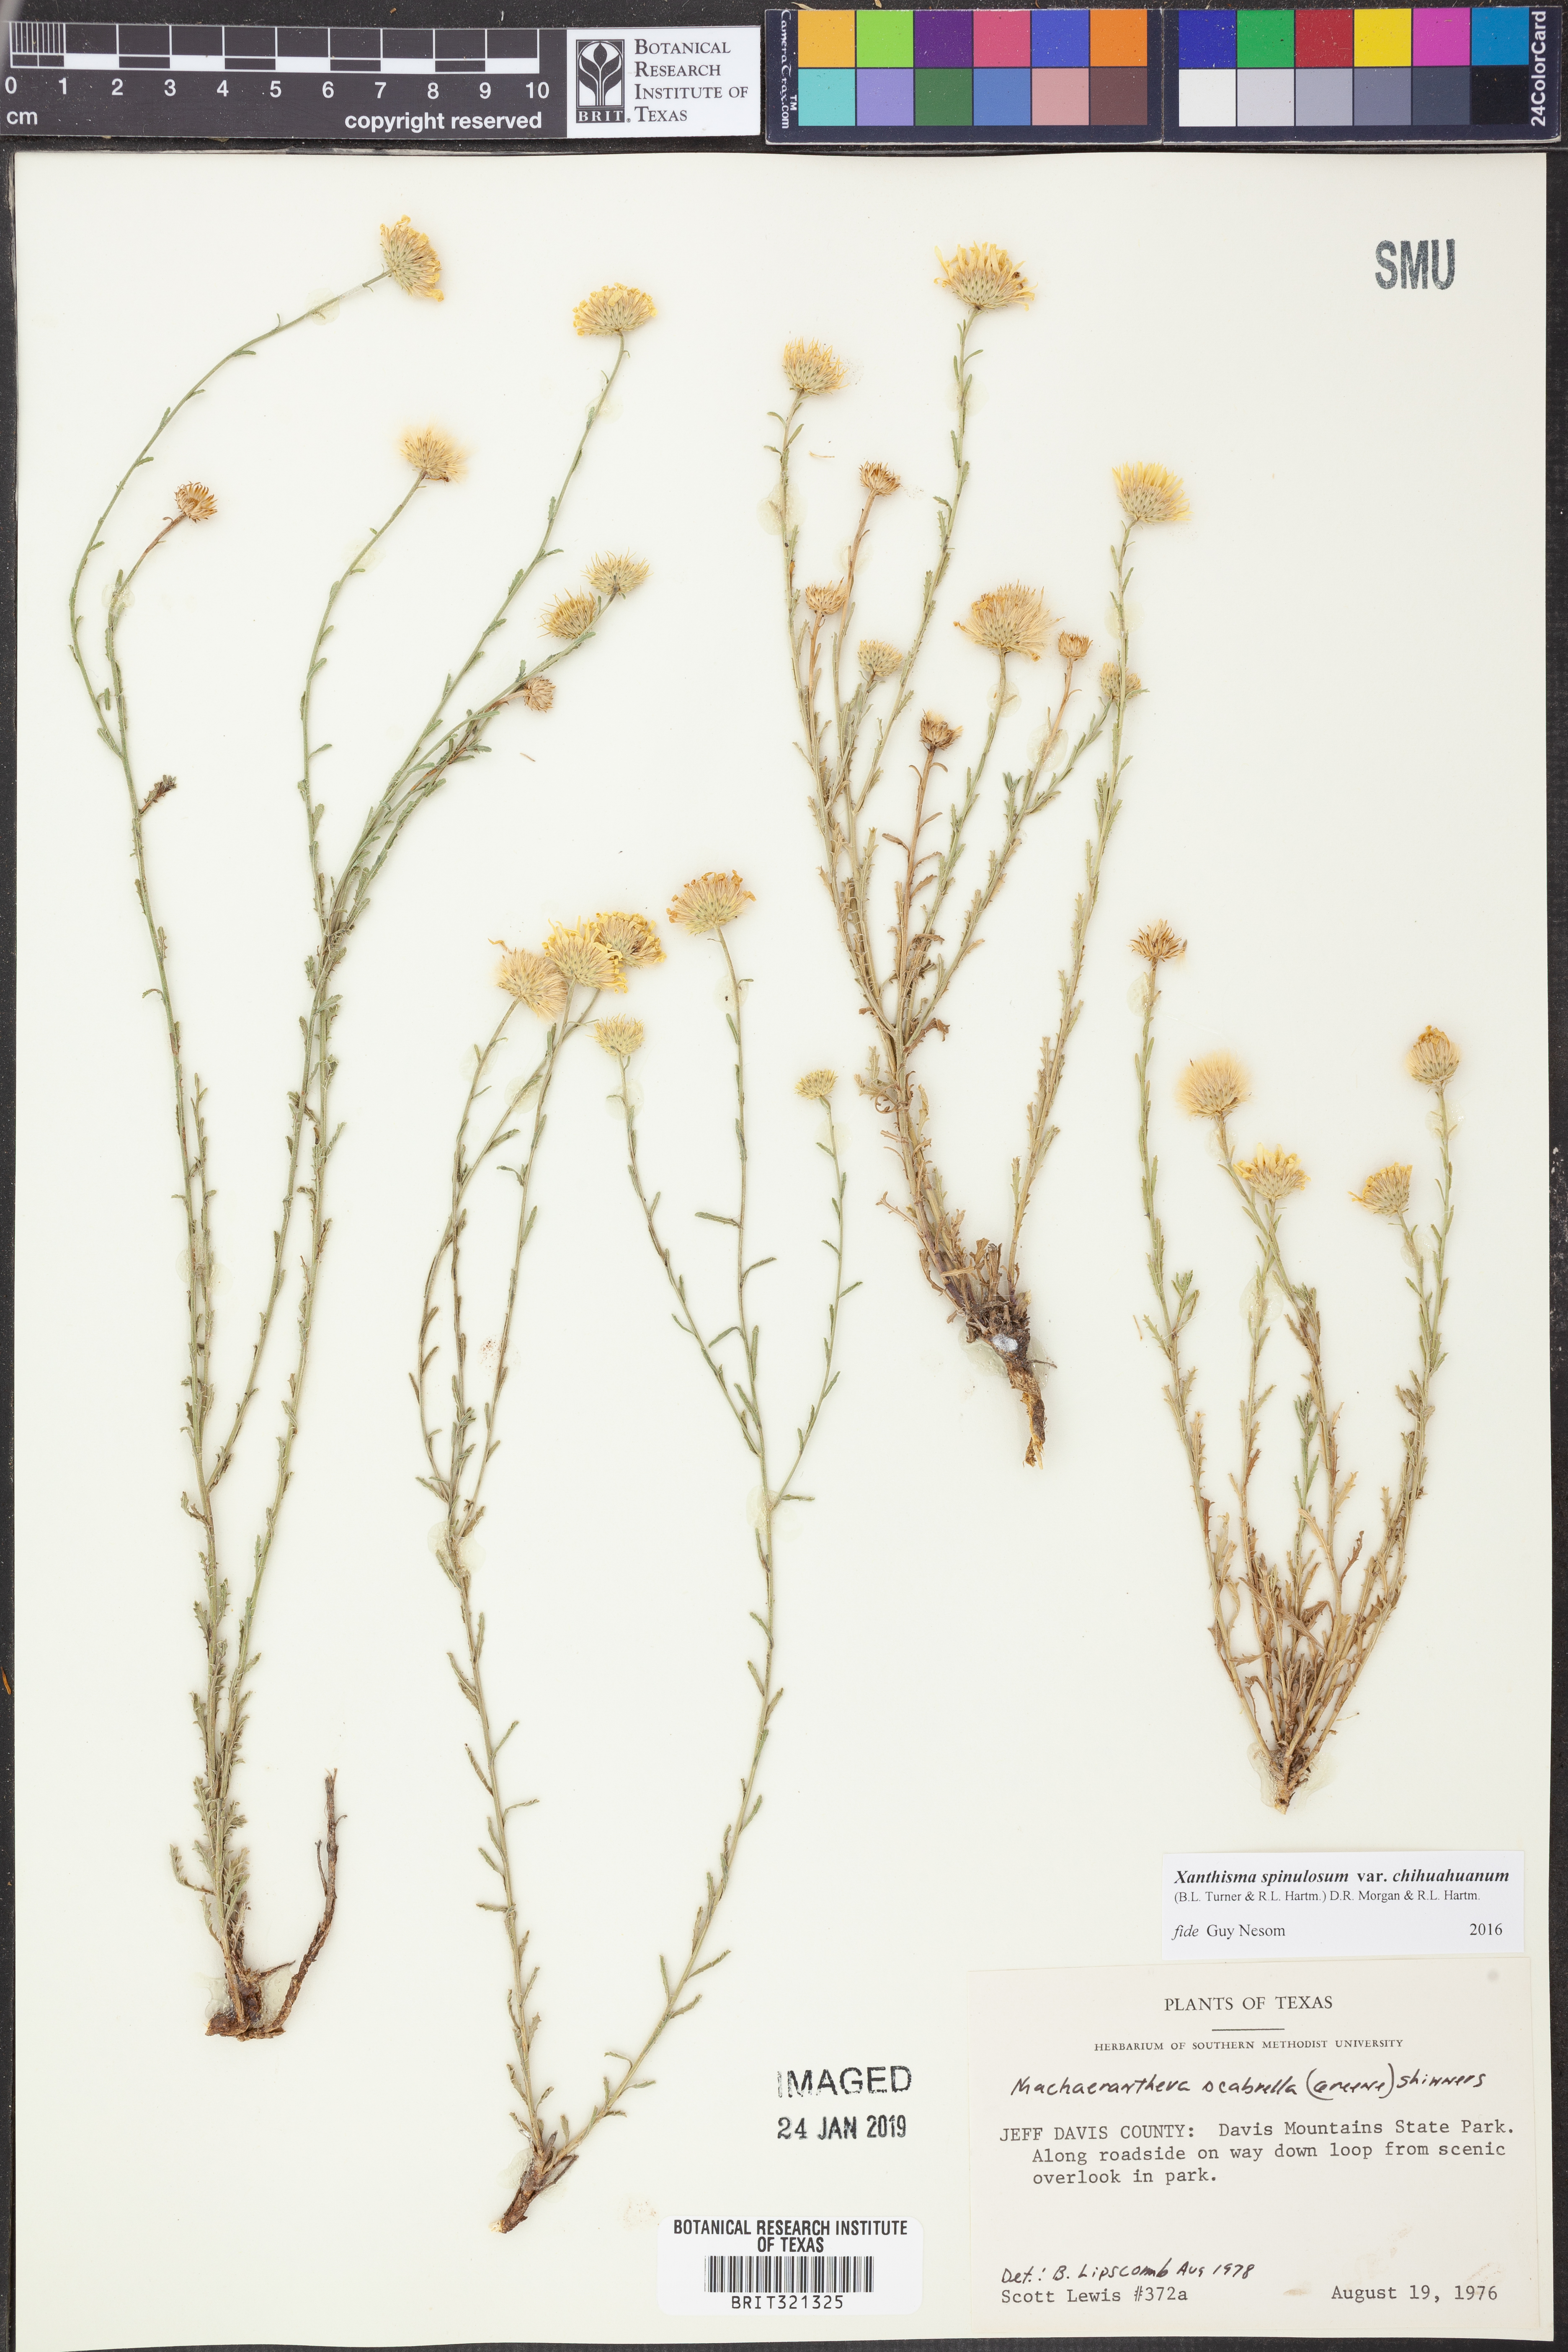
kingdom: Plantae
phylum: Tracheophyta
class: Magnoliopsida
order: Asterales
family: Asteraceae
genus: Xanthisma
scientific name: Xanthisma spinulosum
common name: Spiny goldenweed
